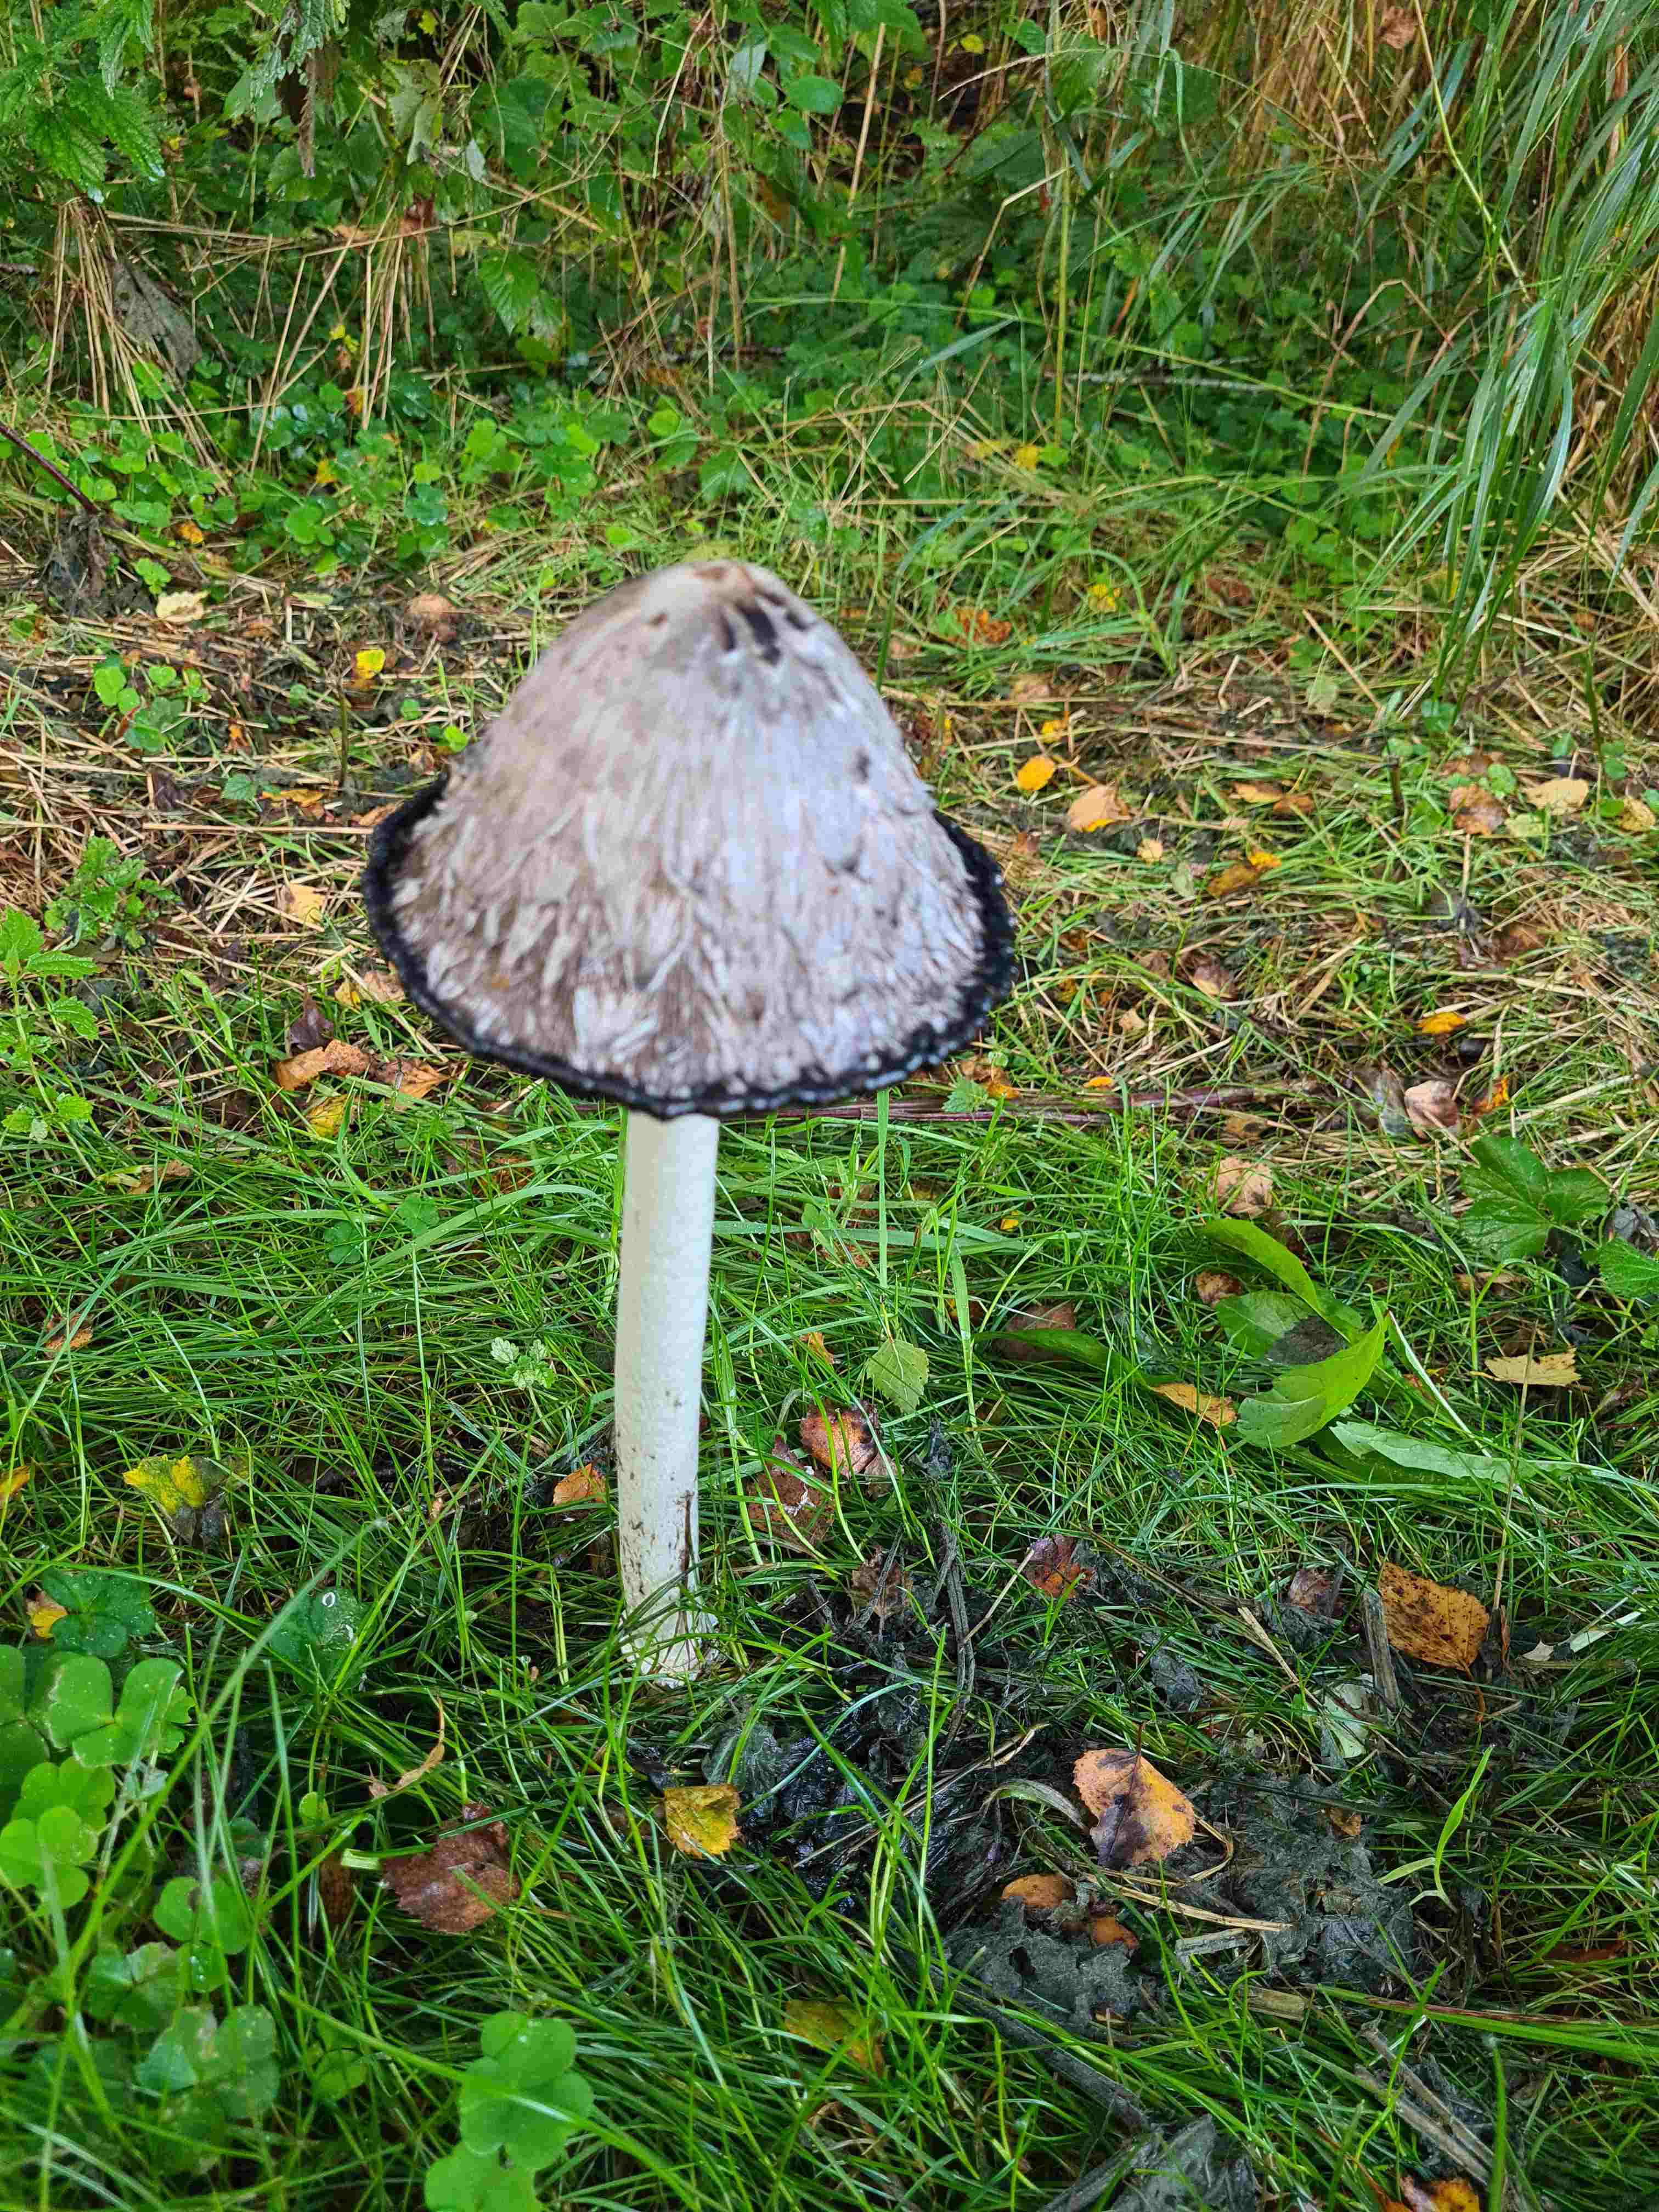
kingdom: Fungi
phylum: Basidiomycota
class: Agaricomycetes
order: Agaricales
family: Agaricaceae
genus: Coprinus
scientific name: Coprinus comatus
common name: stor parykhat
